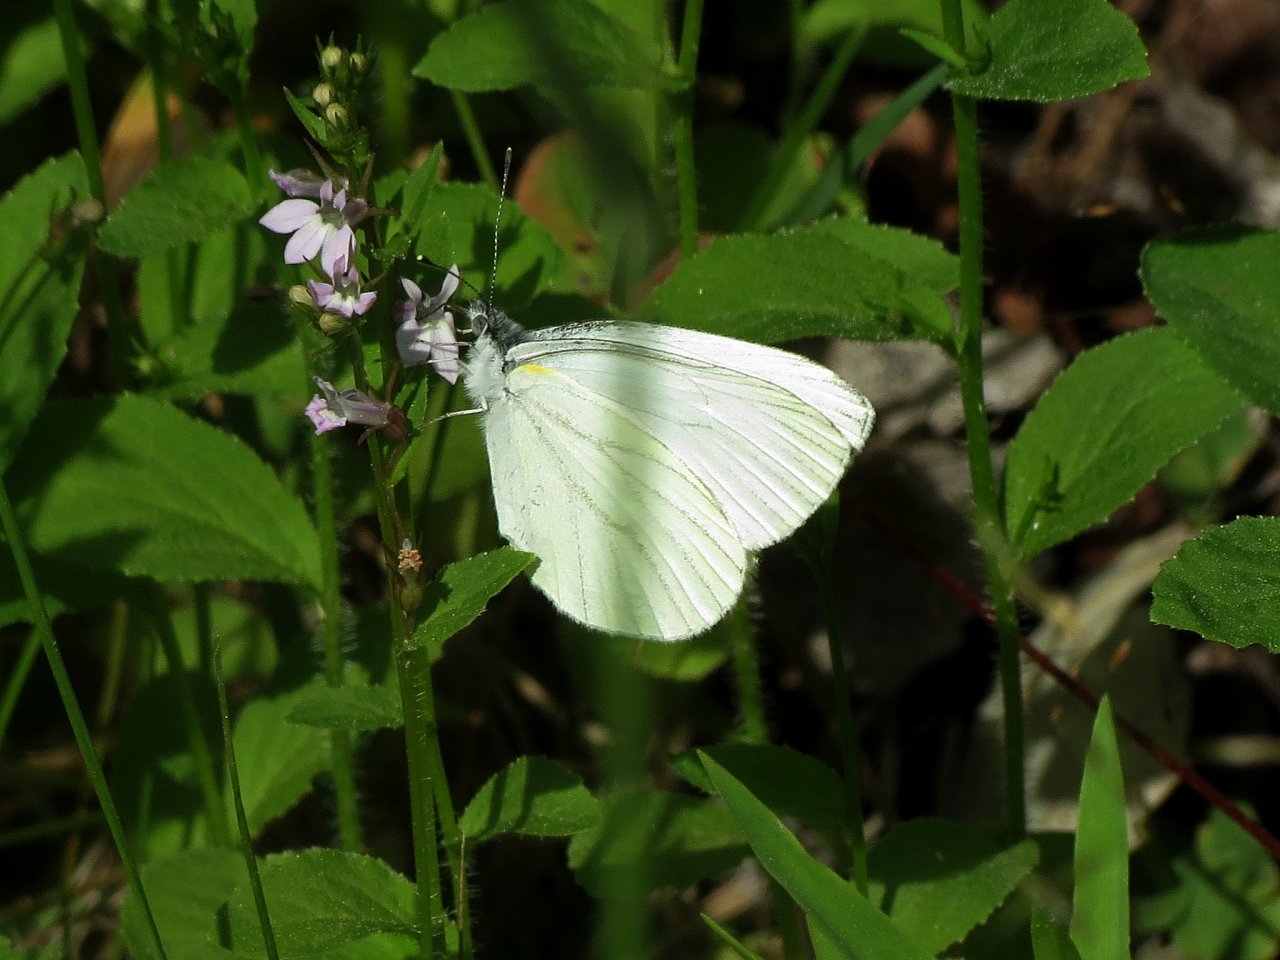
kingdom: Animalia
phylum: Arthropoda
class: Insecta
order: Lepidoptera
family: Pieridae
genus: Pieris
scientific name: Pieris oleracea
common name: Mustard White
